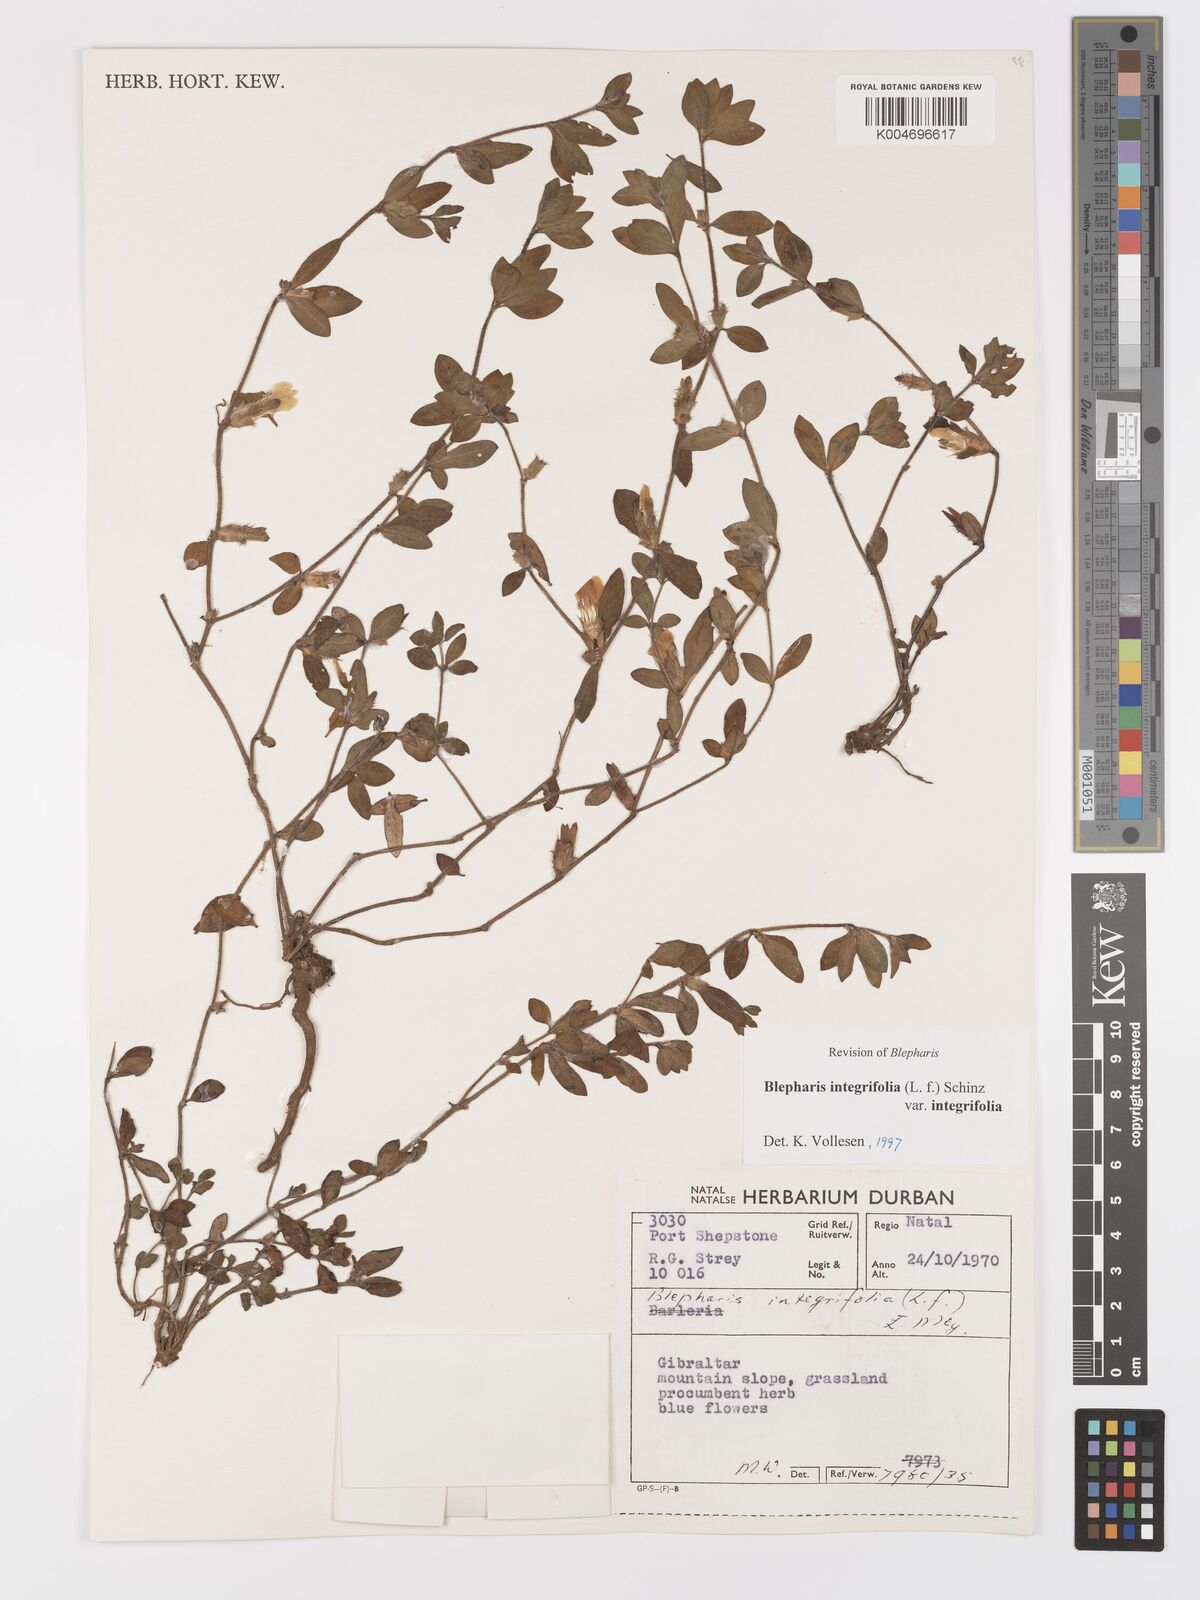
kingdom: Plantae
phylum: Tracheophyta
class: Magnoliopsida
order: Lamiales
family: Acanthaceae
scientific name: Acanthaceae
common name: Acanthaceae
